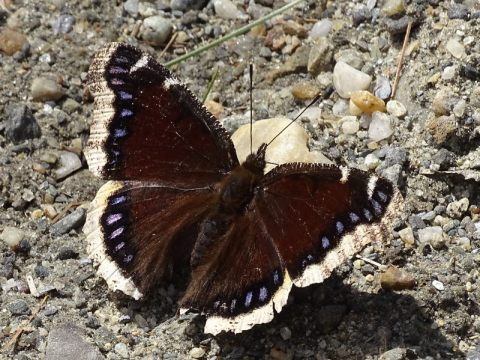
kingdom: Animalia
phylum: Arthropoda
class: Insecta
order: Lepidoptera
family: Nymphalidae
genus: Nymphalis
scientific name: Nymphalis antiopa
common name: Mourning Cloak
